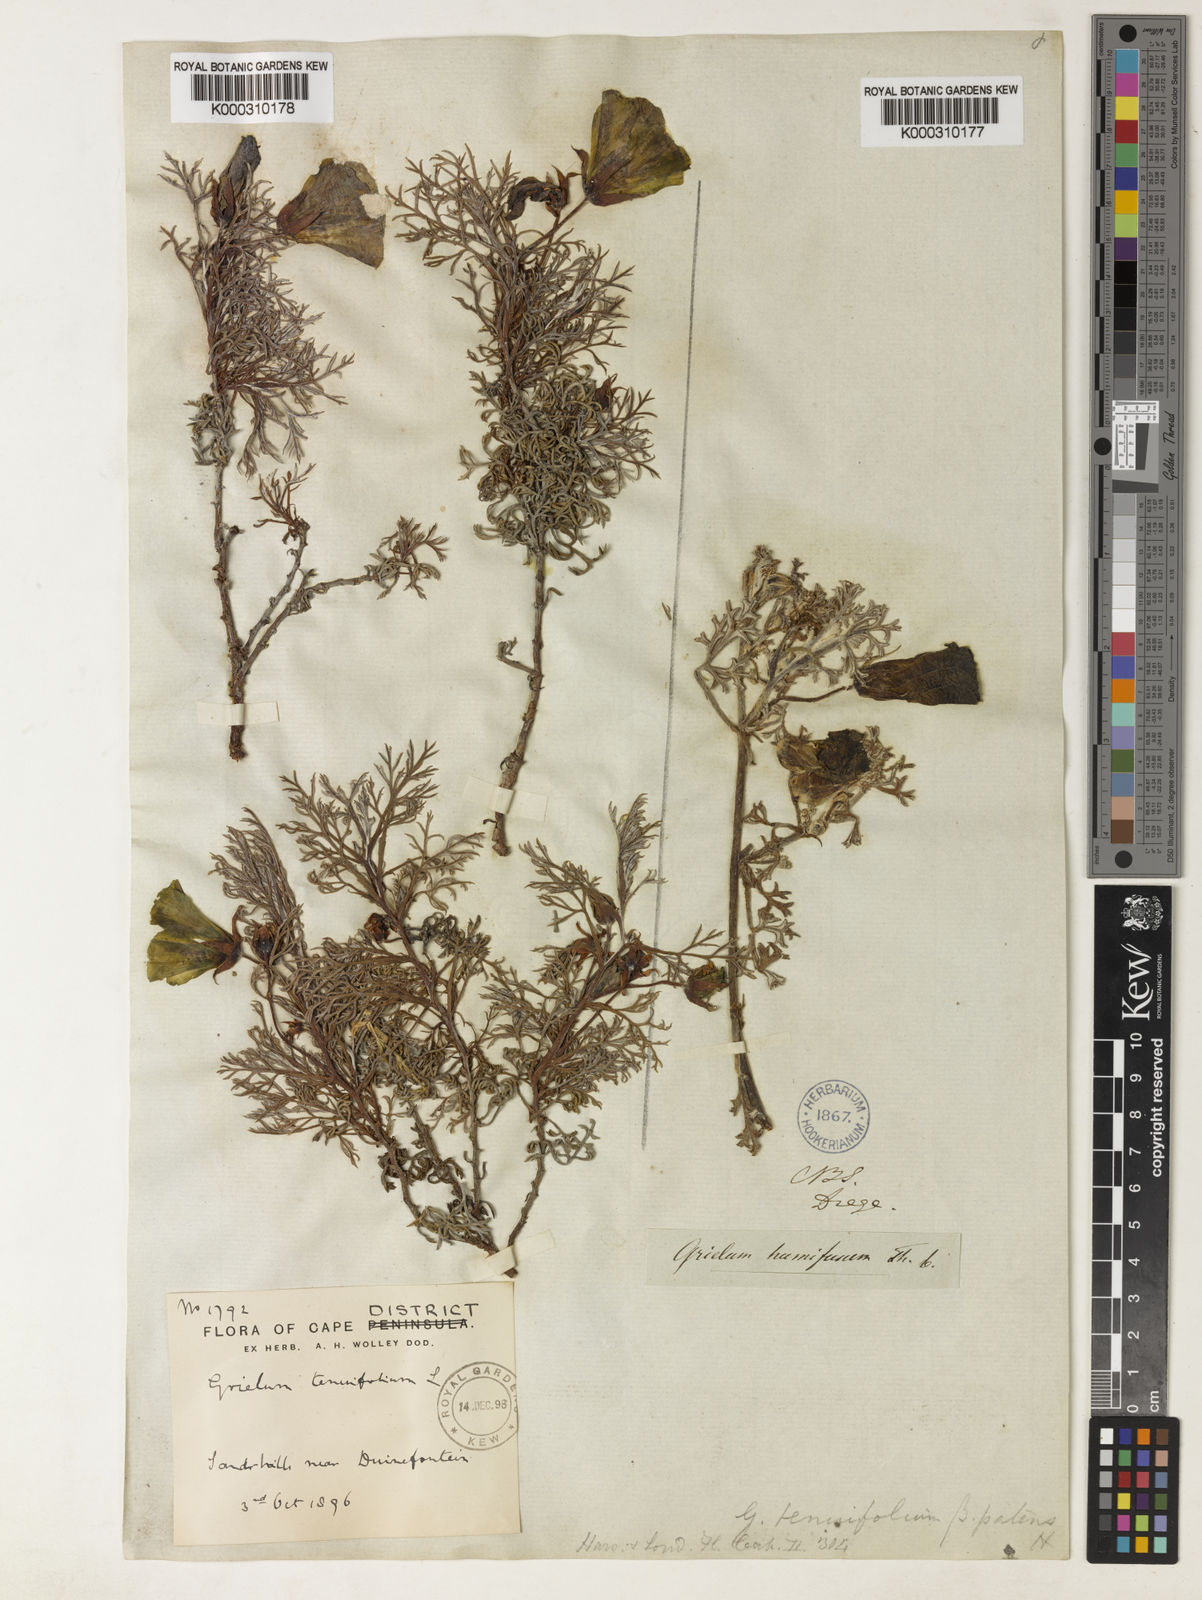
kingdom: Plantae
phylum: Tracheophyta
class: Magnoliopsida
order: Malvales
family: Neuradaceae
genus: Grielum
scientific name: Grielum grandiflorum
